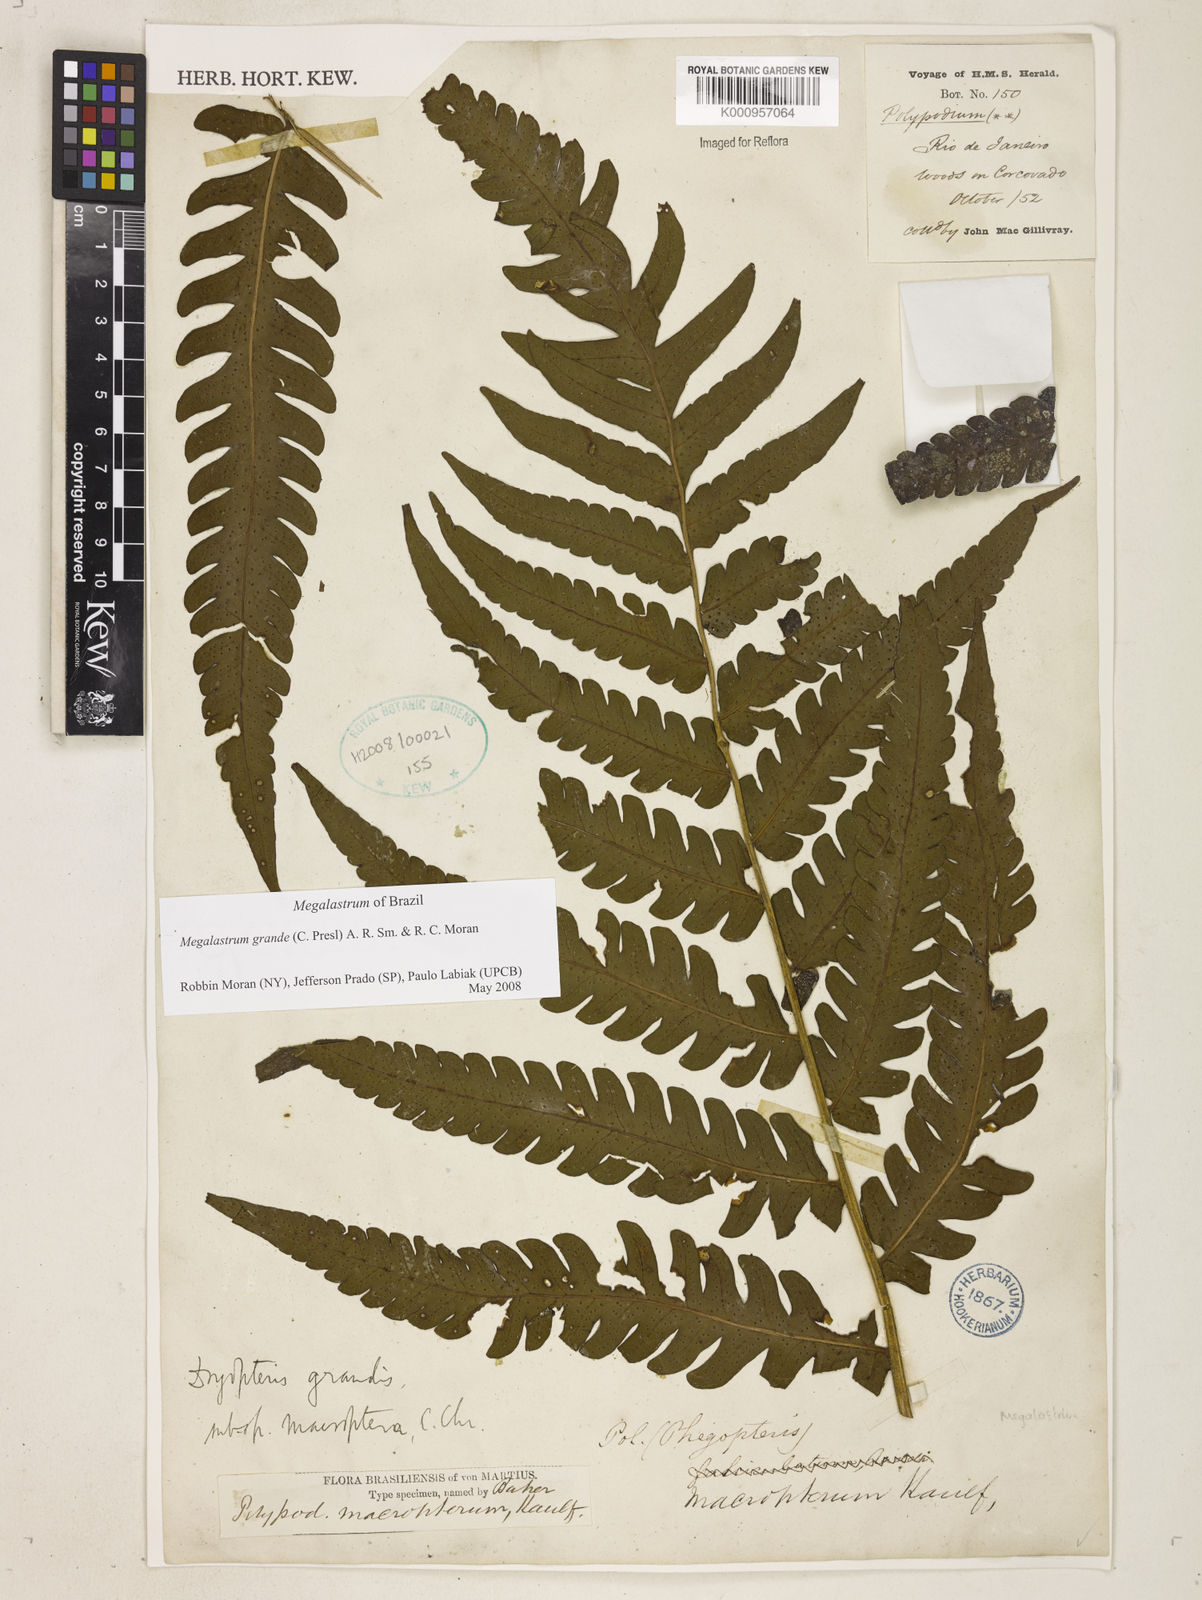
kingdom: Plantae
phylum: Tracheophyta
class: Polypodiopsida
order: Polypodiales
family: Dryopteridaceae
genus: Megalastrum
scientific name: Megalastrum grande
